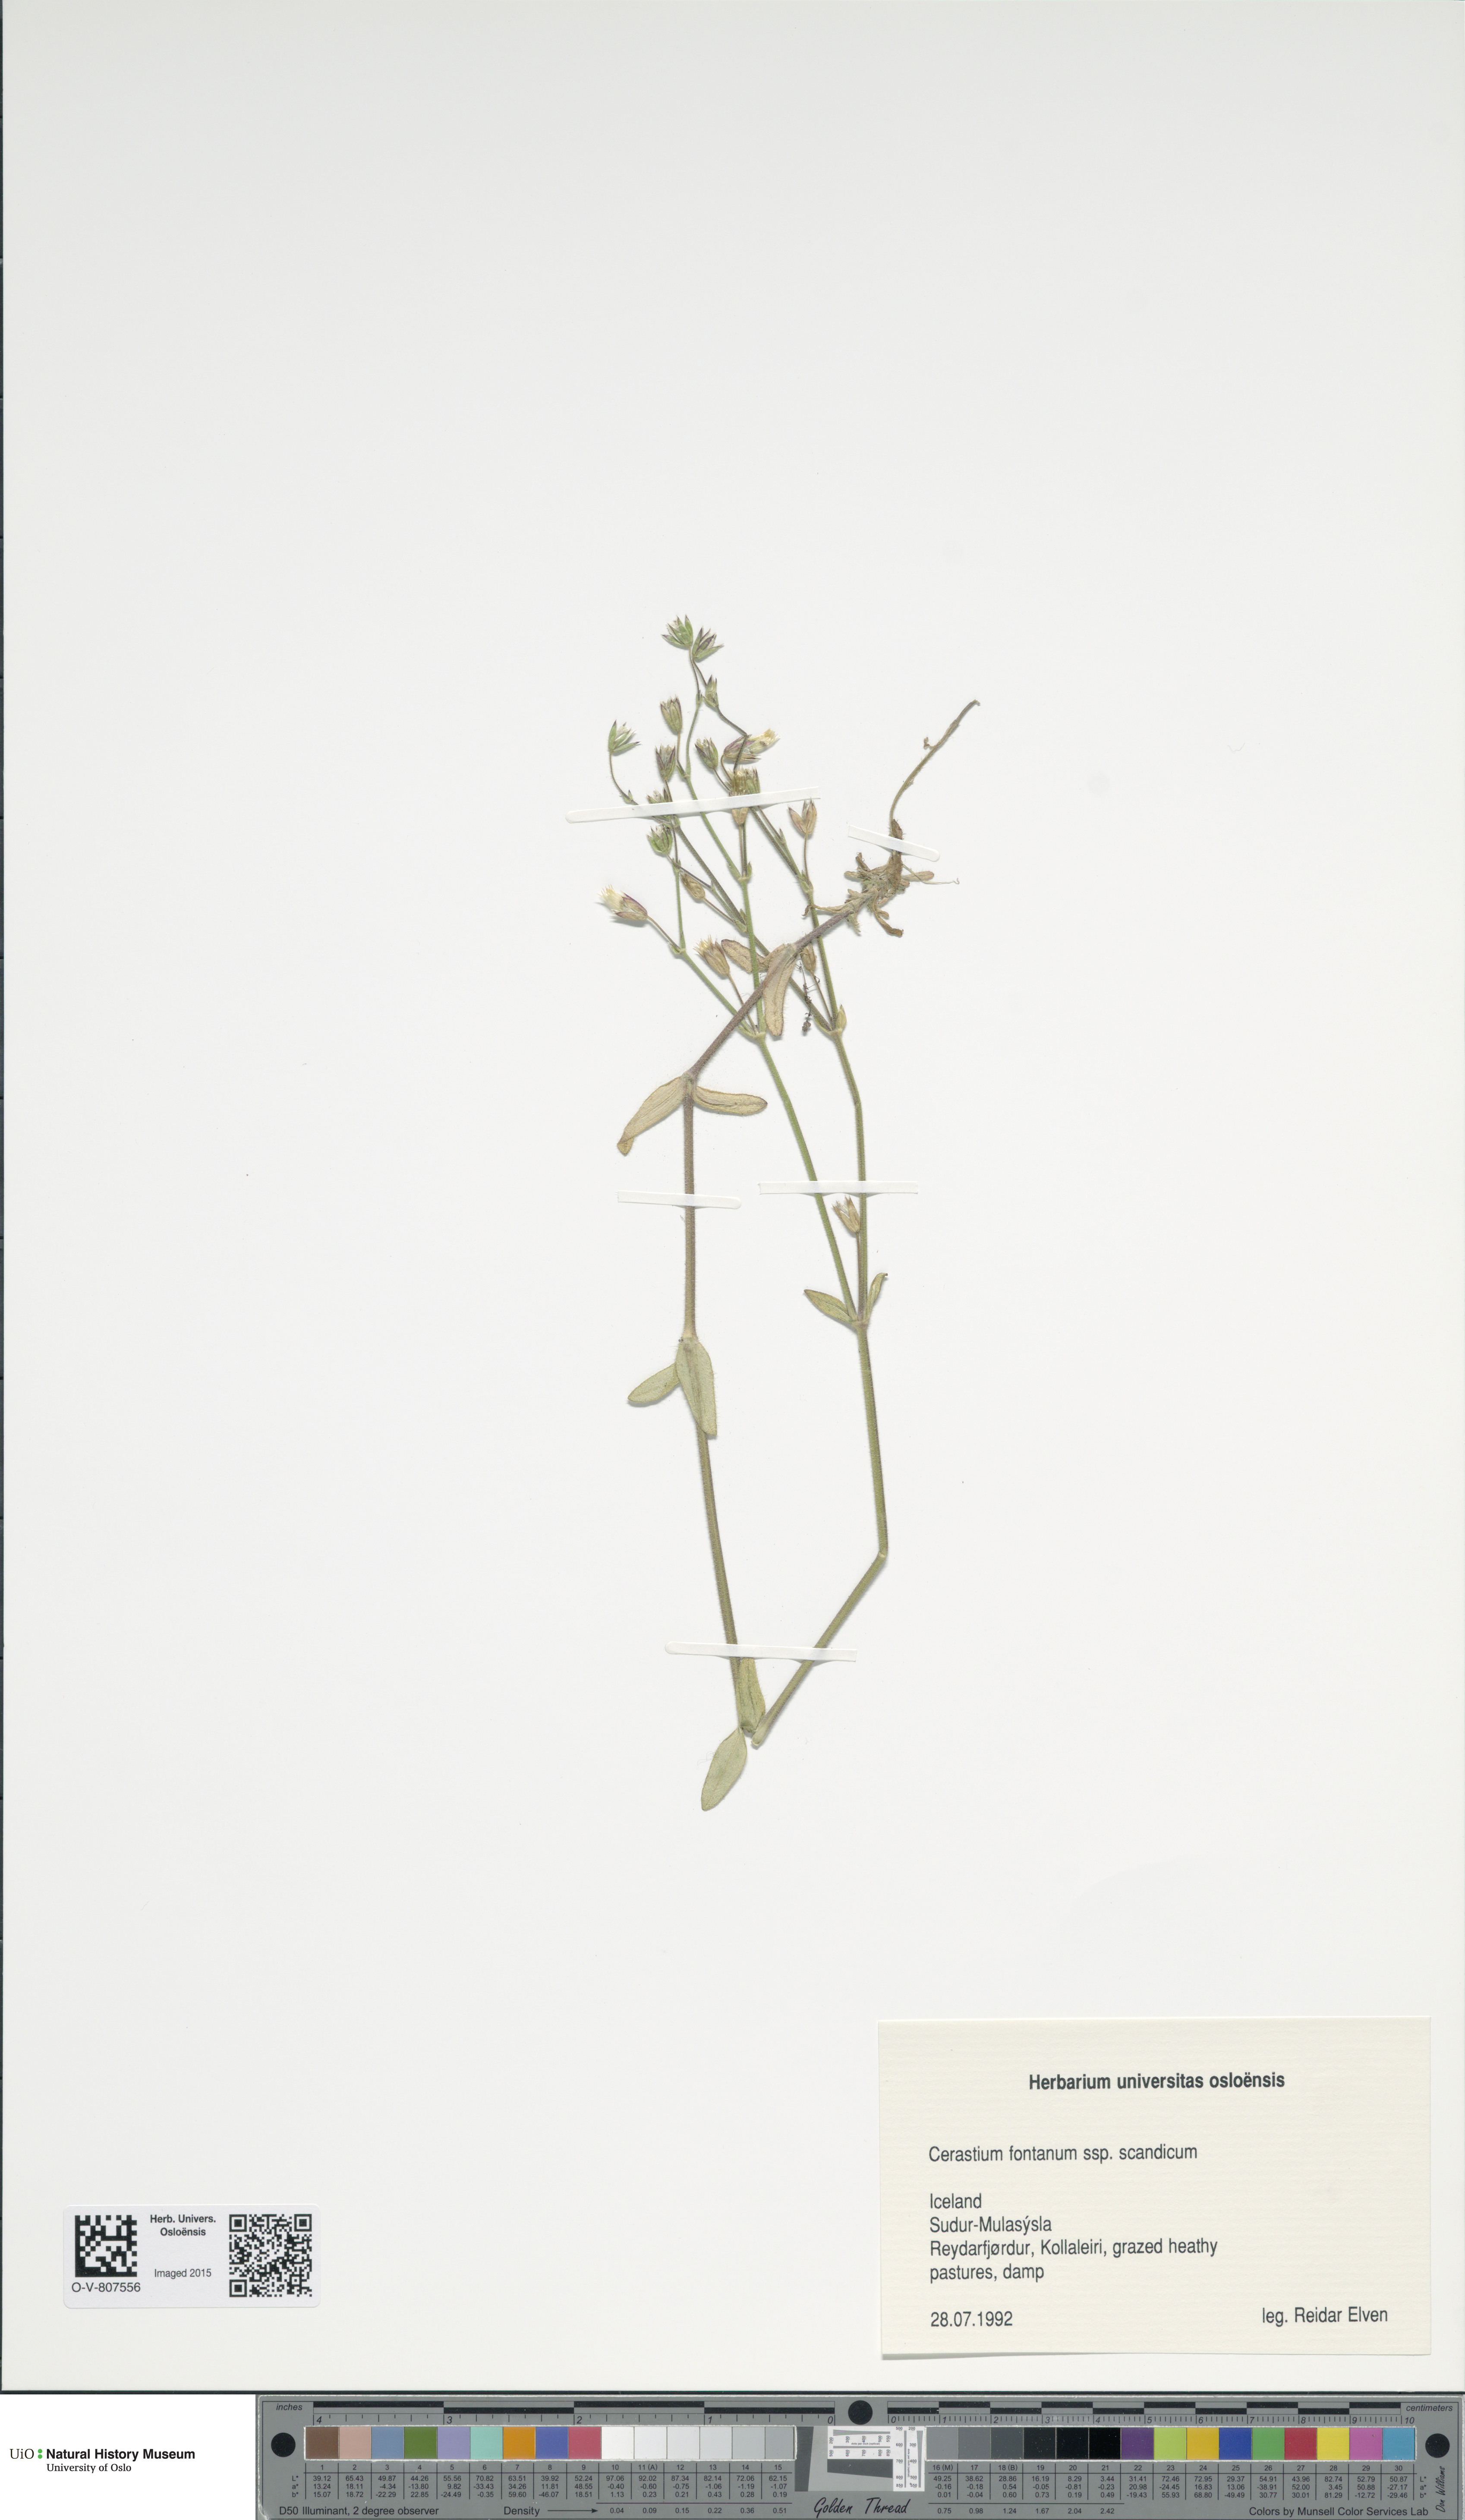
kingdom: Plantae
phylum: Tracheophyta
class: Magnoliopsida
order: Caryophyllales
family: Caryophyllaceae
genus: Cerastium
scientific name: Cerastium fontanum
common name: Common mouse-ear
